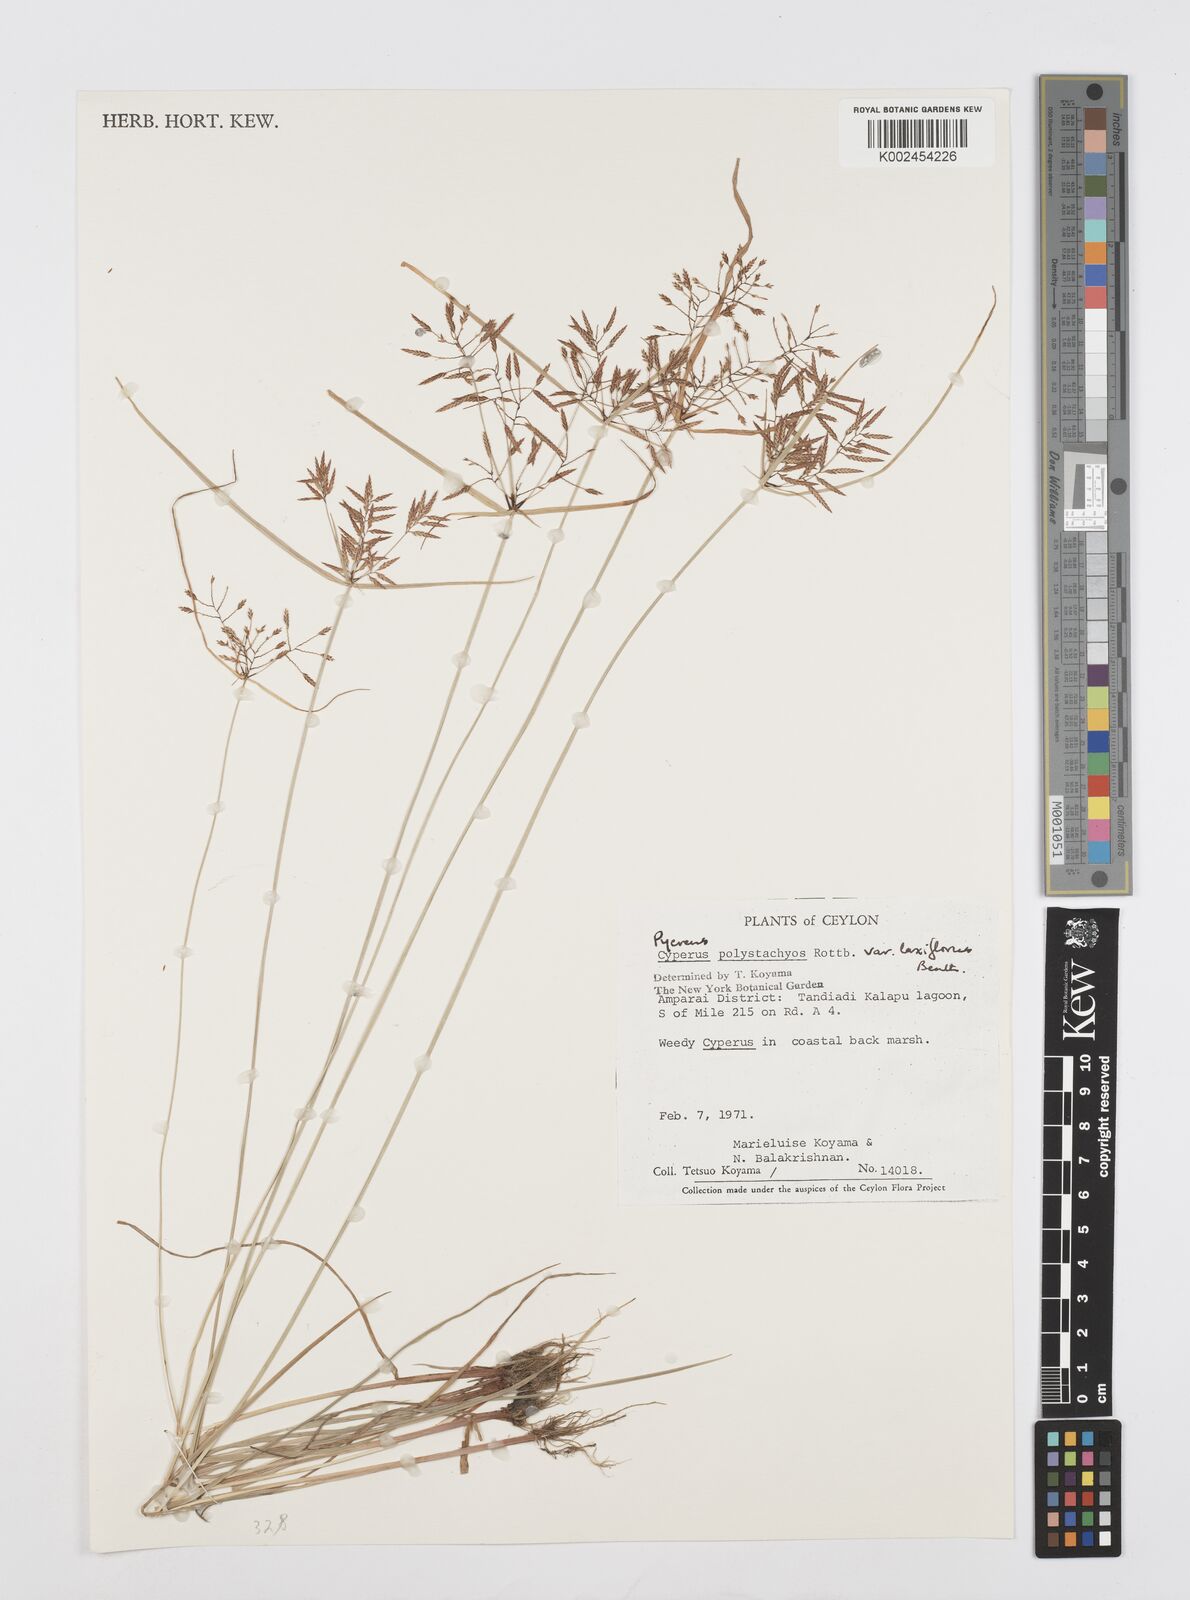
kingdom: Plantae
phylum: Tracheophyta
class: Liliopsida
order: Poales
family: Cyperaceae
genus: Cyperus
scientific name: Cyperus polystachyos
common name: Bunchy flat sedge
